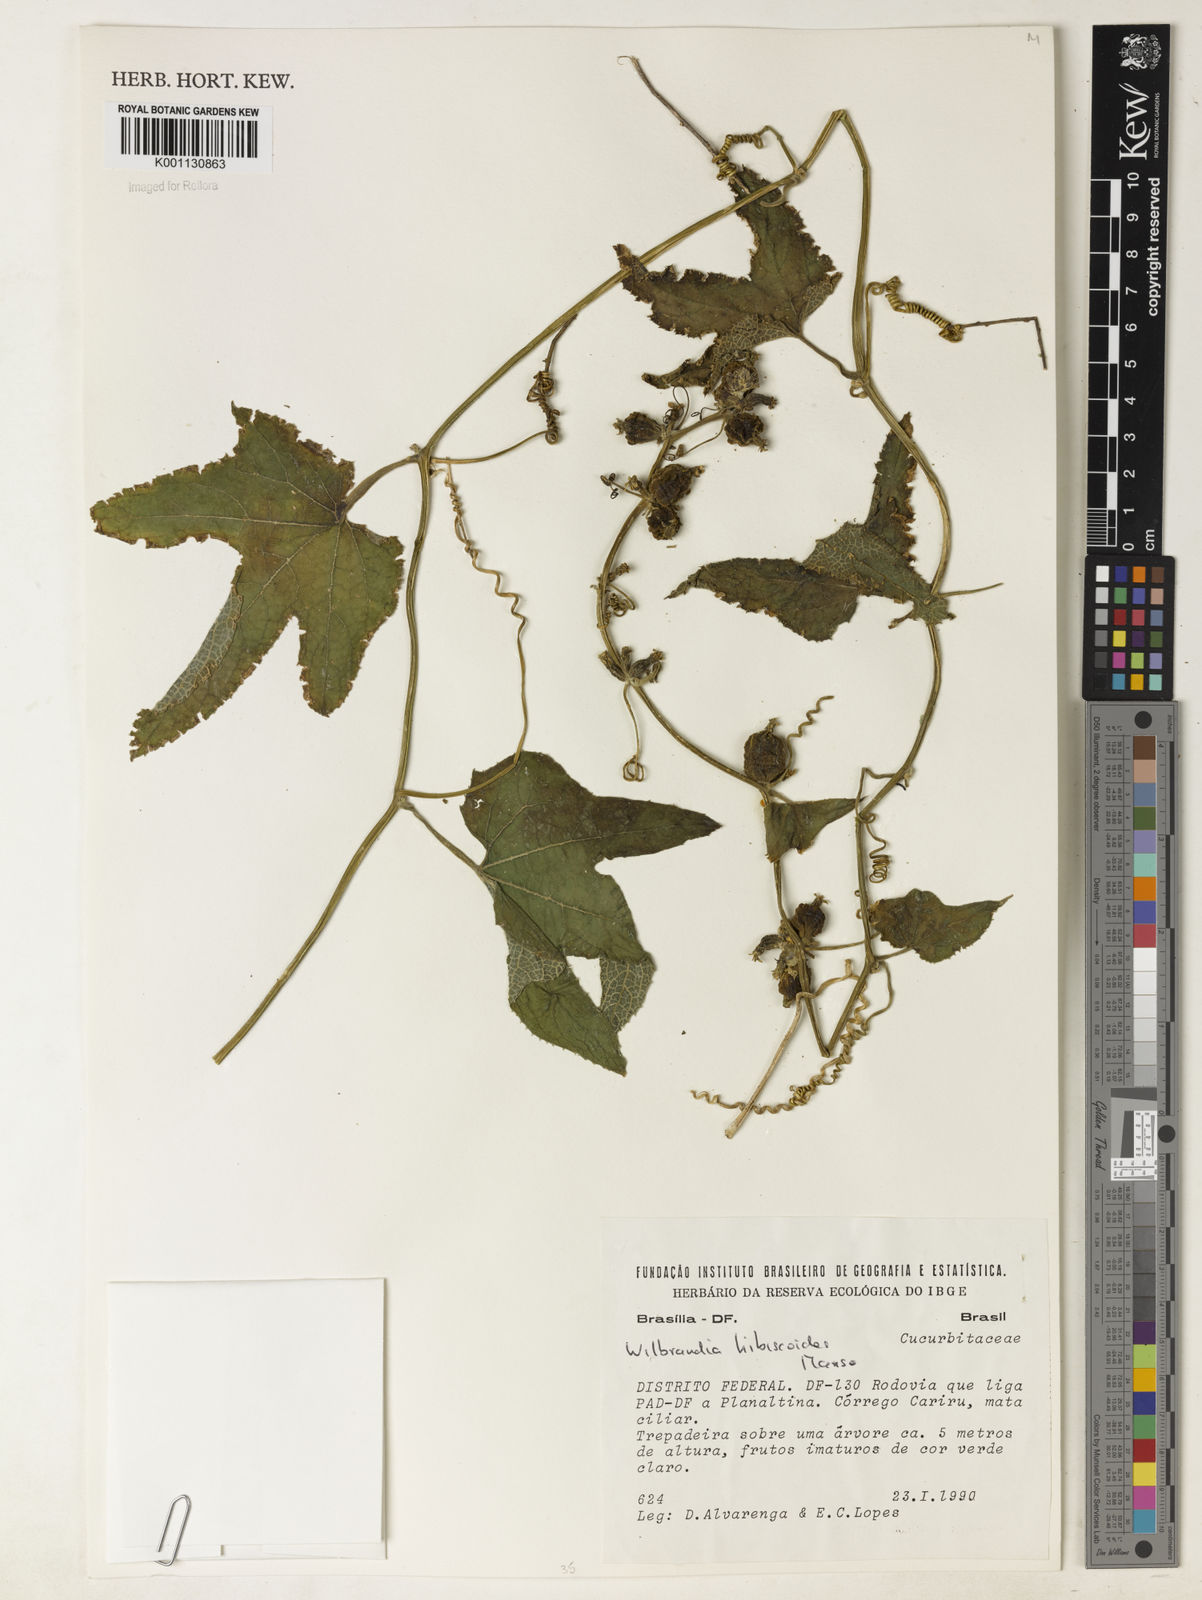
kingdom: Plantae
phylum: Tracheophyta
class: Magnoliopsida
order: Cucurbitales
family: Cucurbitaceae
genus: Wilbrandia
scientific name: Wilbrandia hibiscoides
